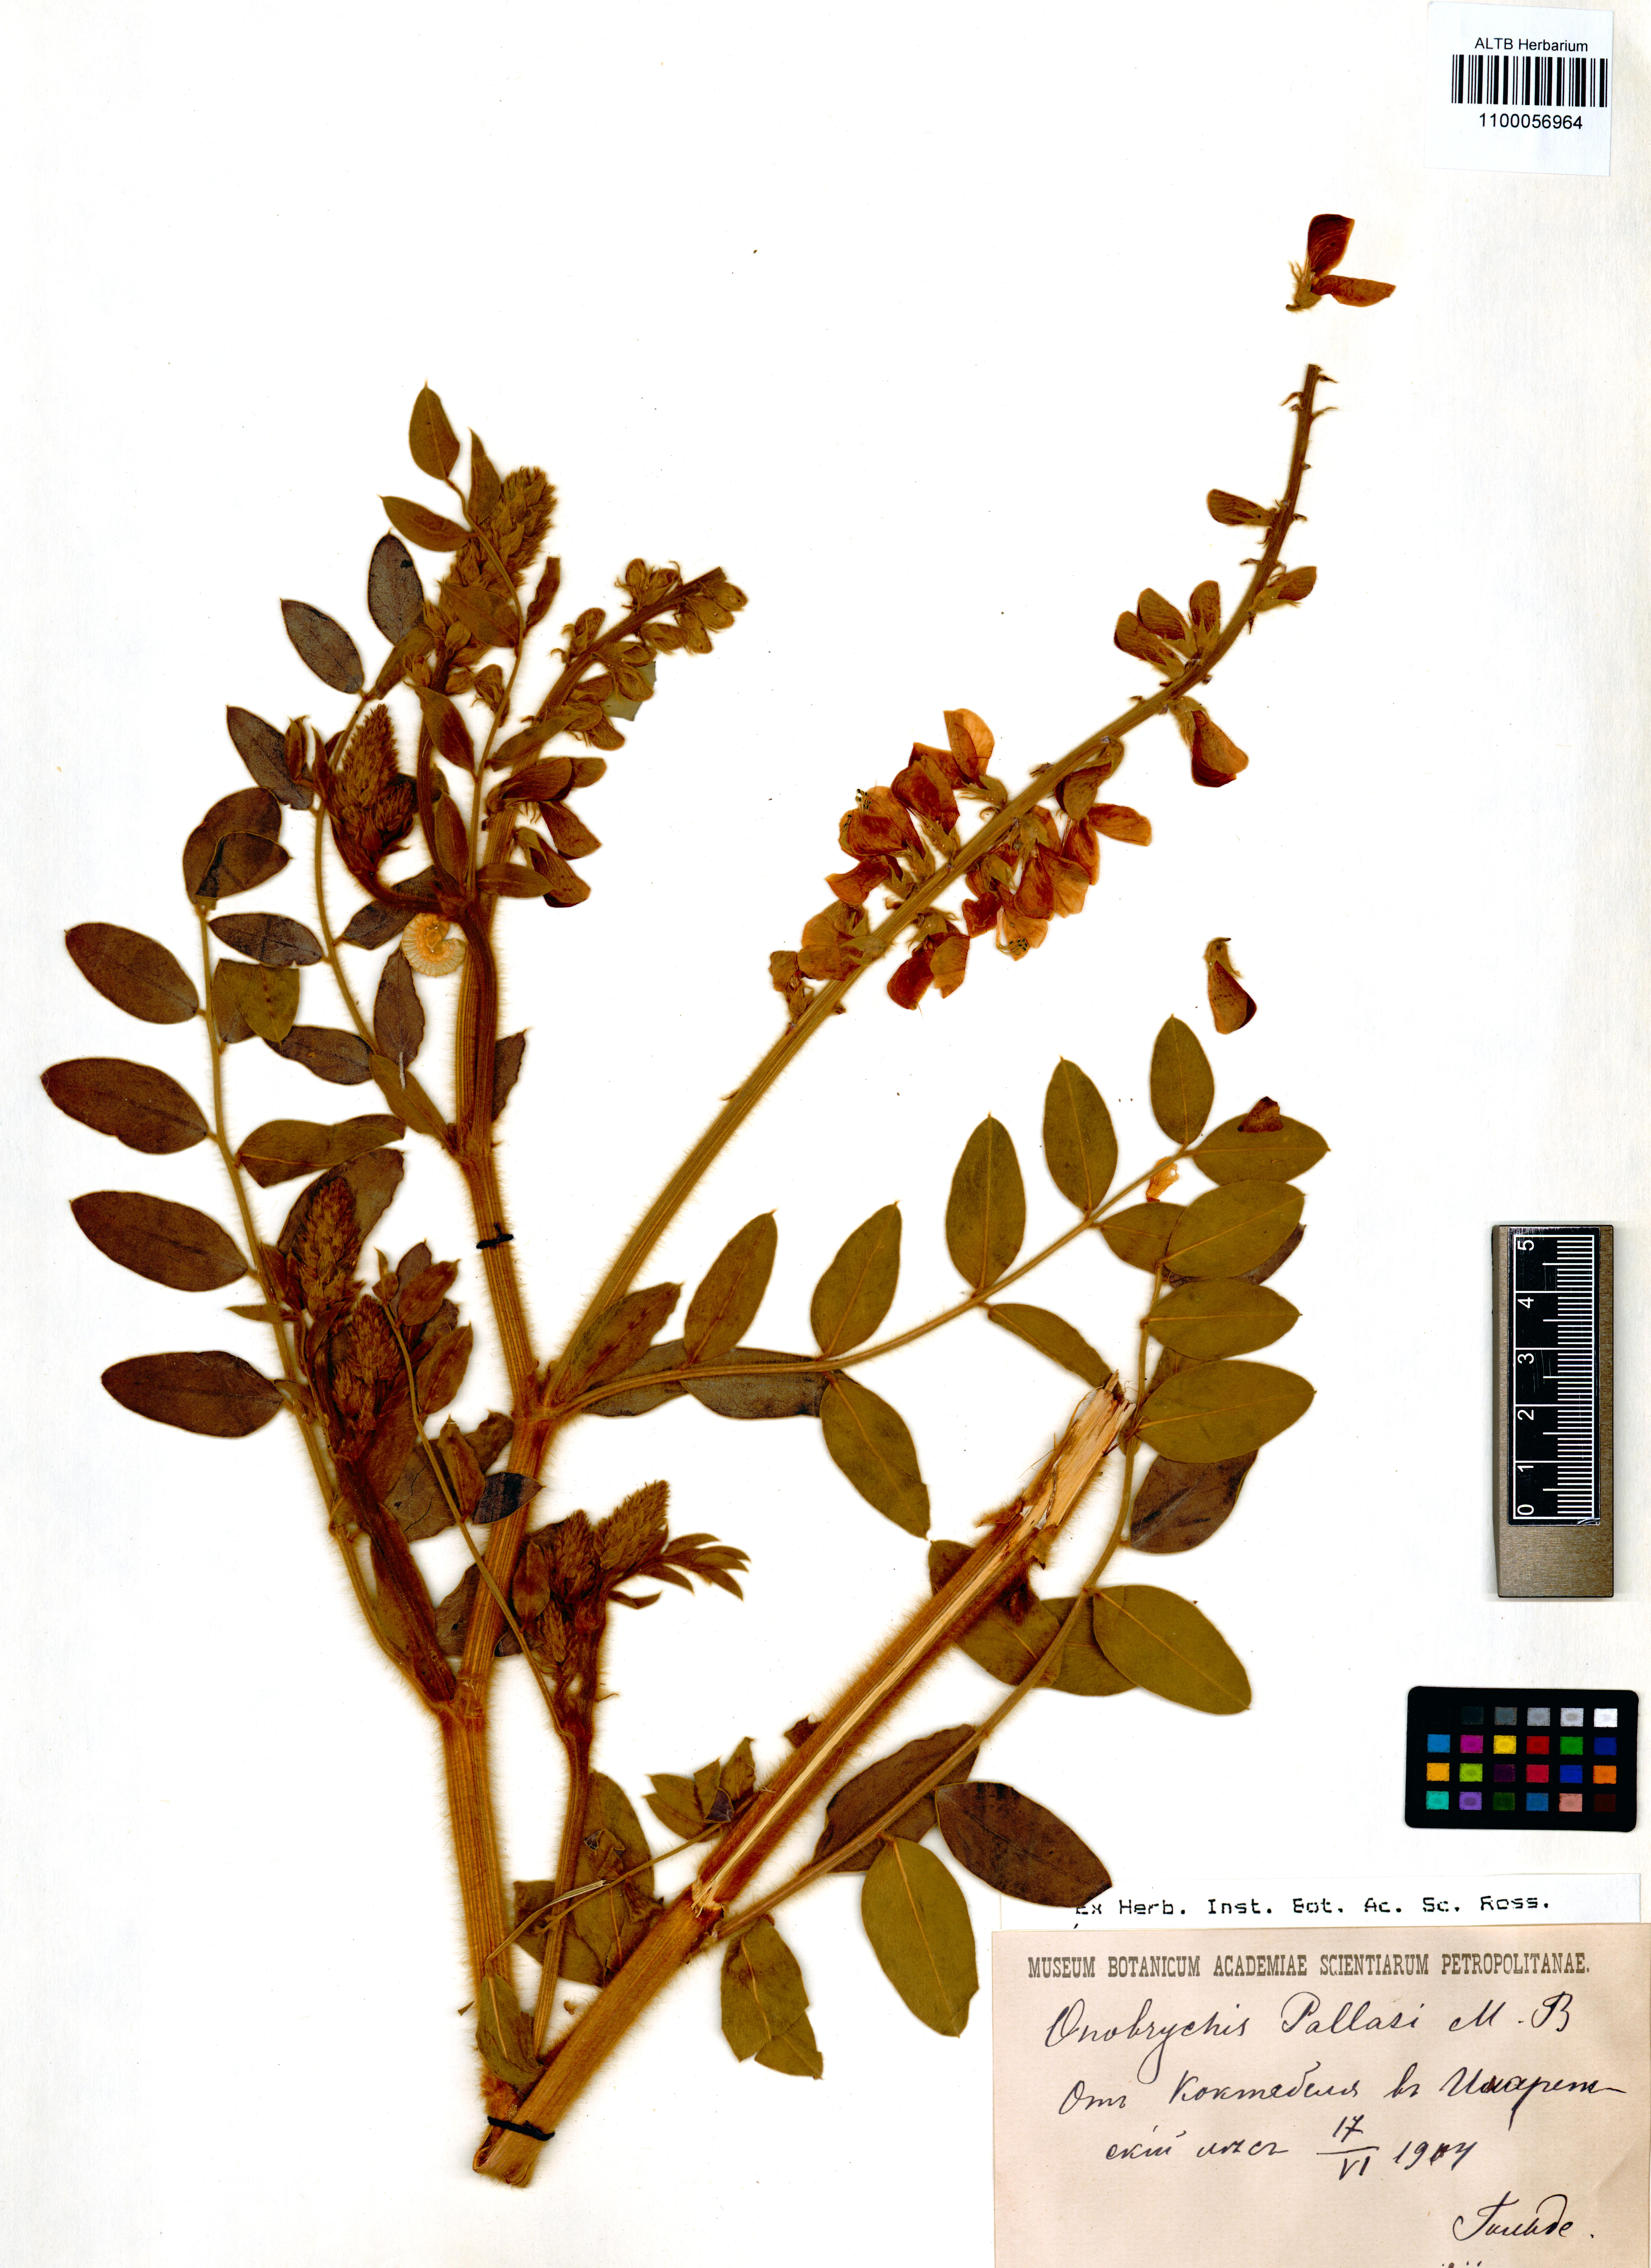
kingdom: Plantae
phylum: Tracheophyta
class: Magnoliopsida
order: Fabales
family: Fabaceae
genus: Onobrychis
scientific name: Onobrychis pallasii
